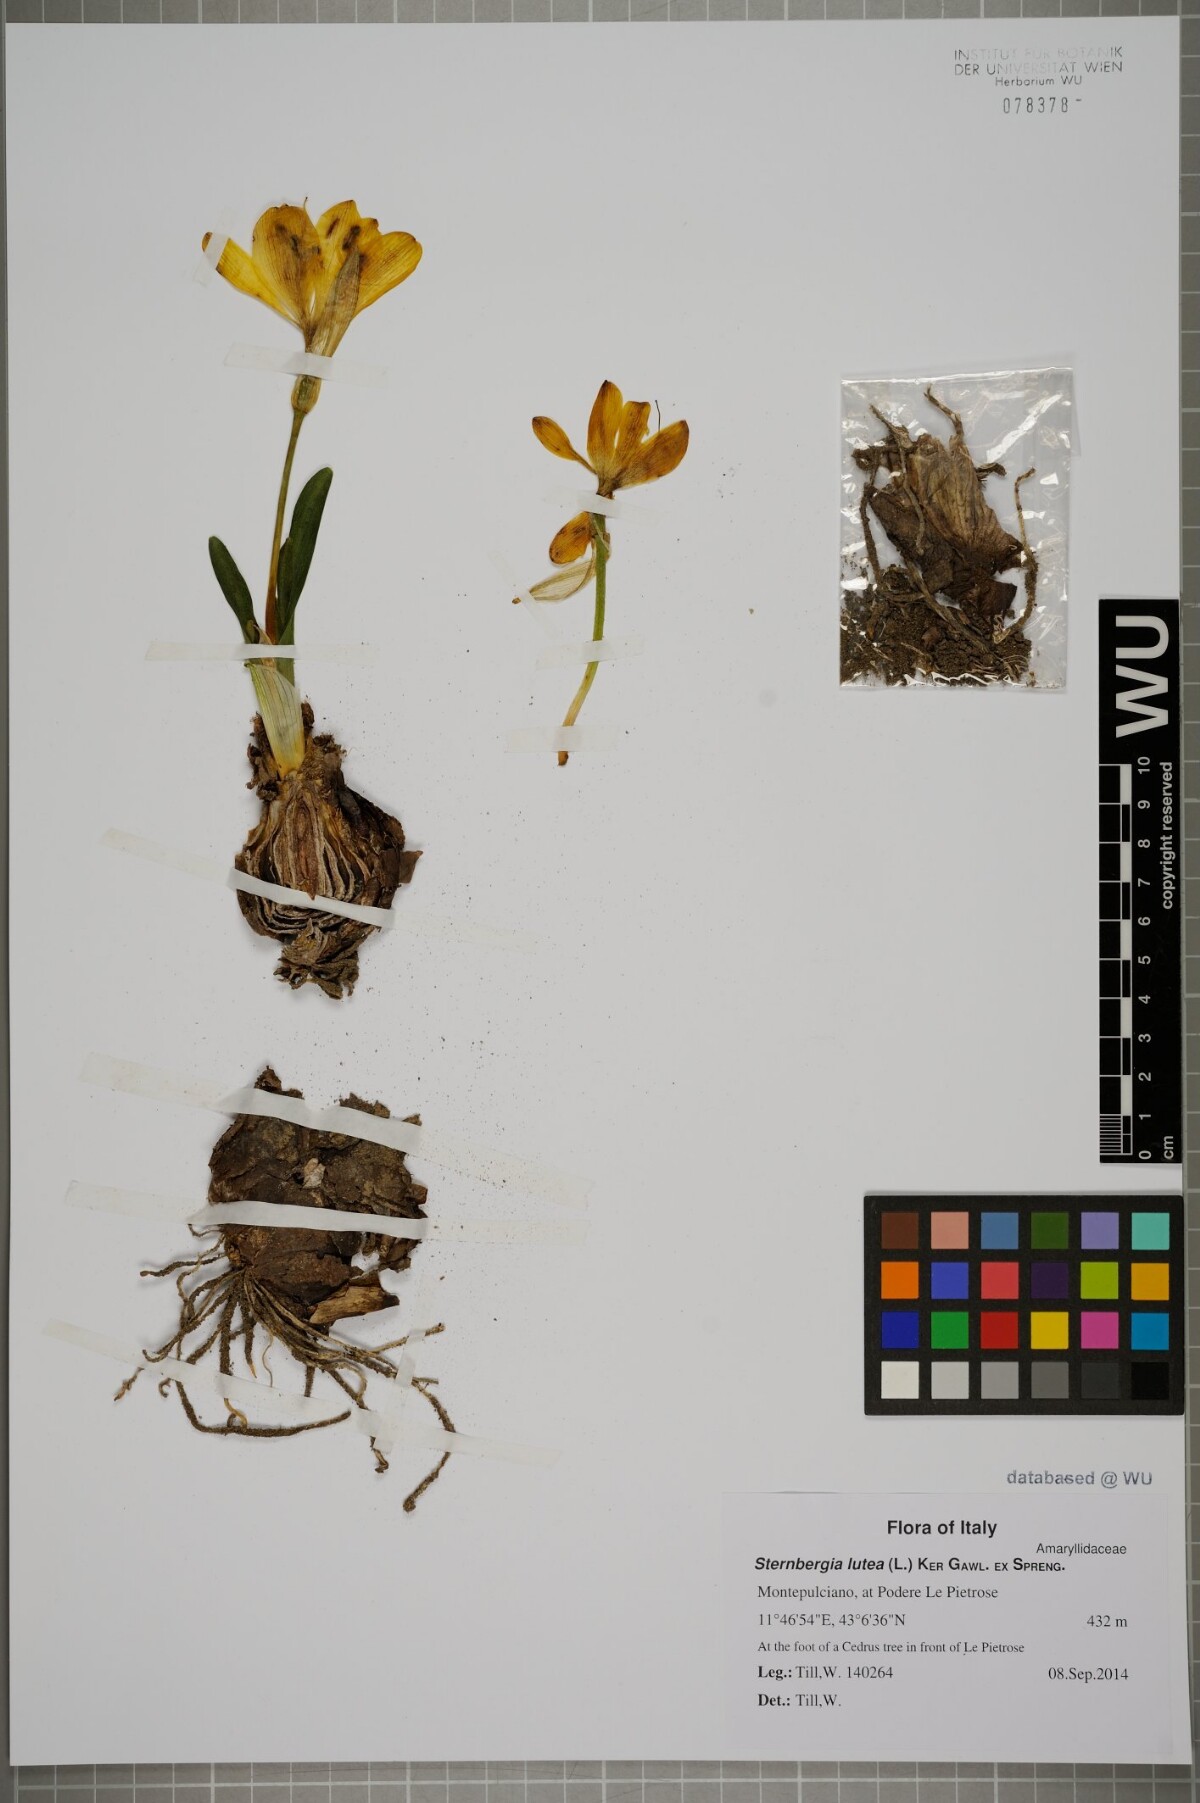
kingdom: Plantae
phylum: Tracheophyta
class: Liliopsida
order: Asparagales
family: Amaryllidaceae
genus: Sternbergia
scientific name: Sternbergia lutea
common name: Winter daffodil
